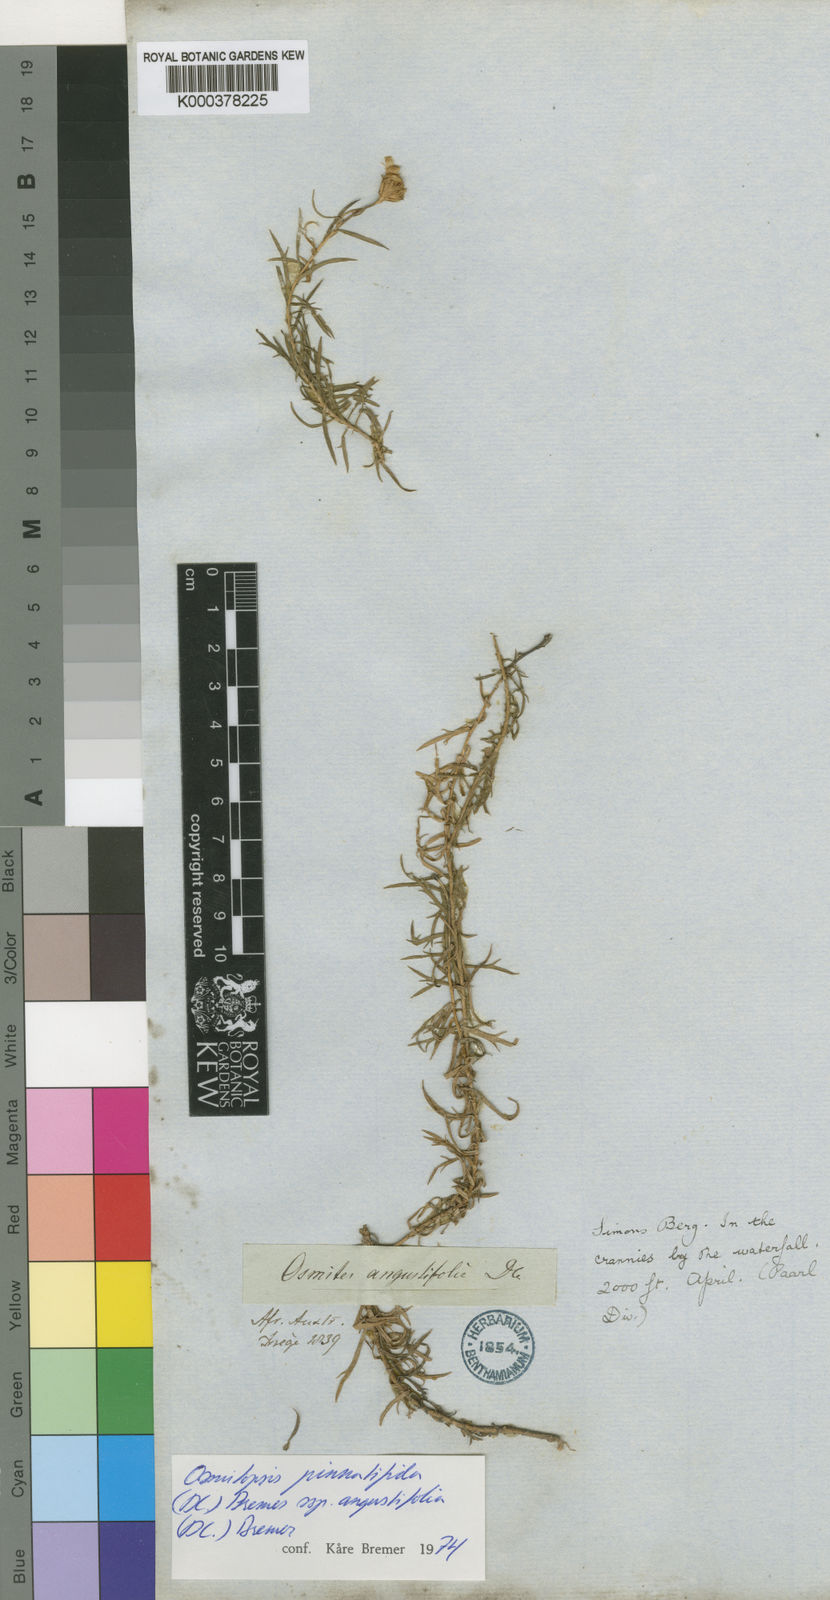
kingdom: Plantae
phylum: Tracheophyta
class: Magnoliopsida
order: Asterales
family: Asteraceae
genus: Osmitopsis
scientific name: Osmitopsis pinnatifida
